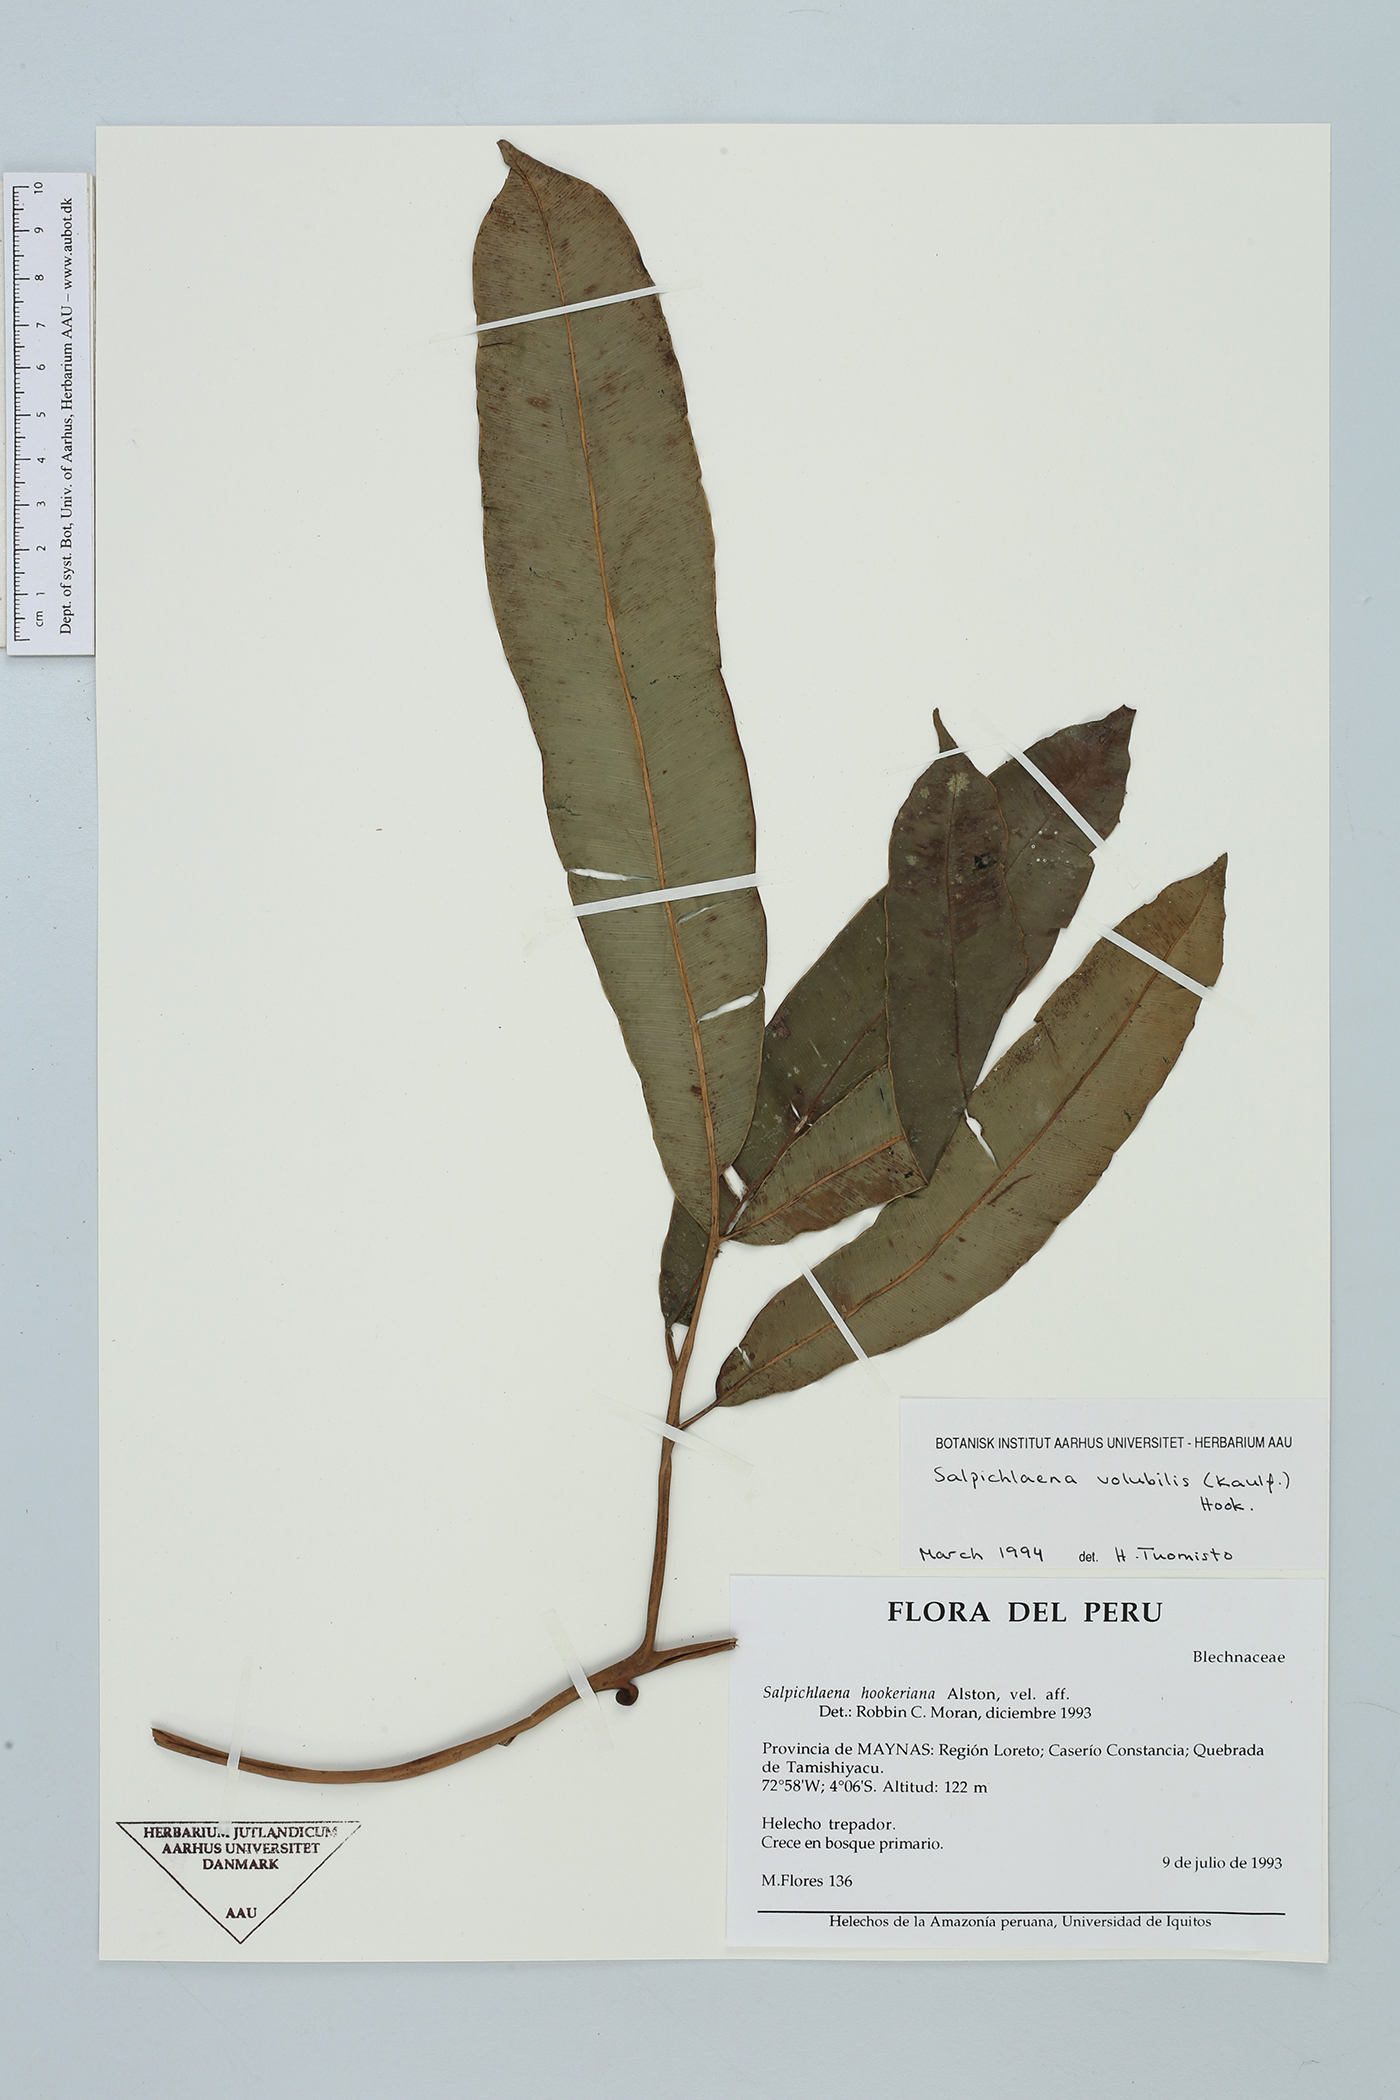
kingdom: Plantae
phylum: Tracheophyta
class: Polypodiopsida
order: Polypodiales
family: Blechnaceae
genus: Salpichlaena
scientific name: Salpichlaena volubilis
